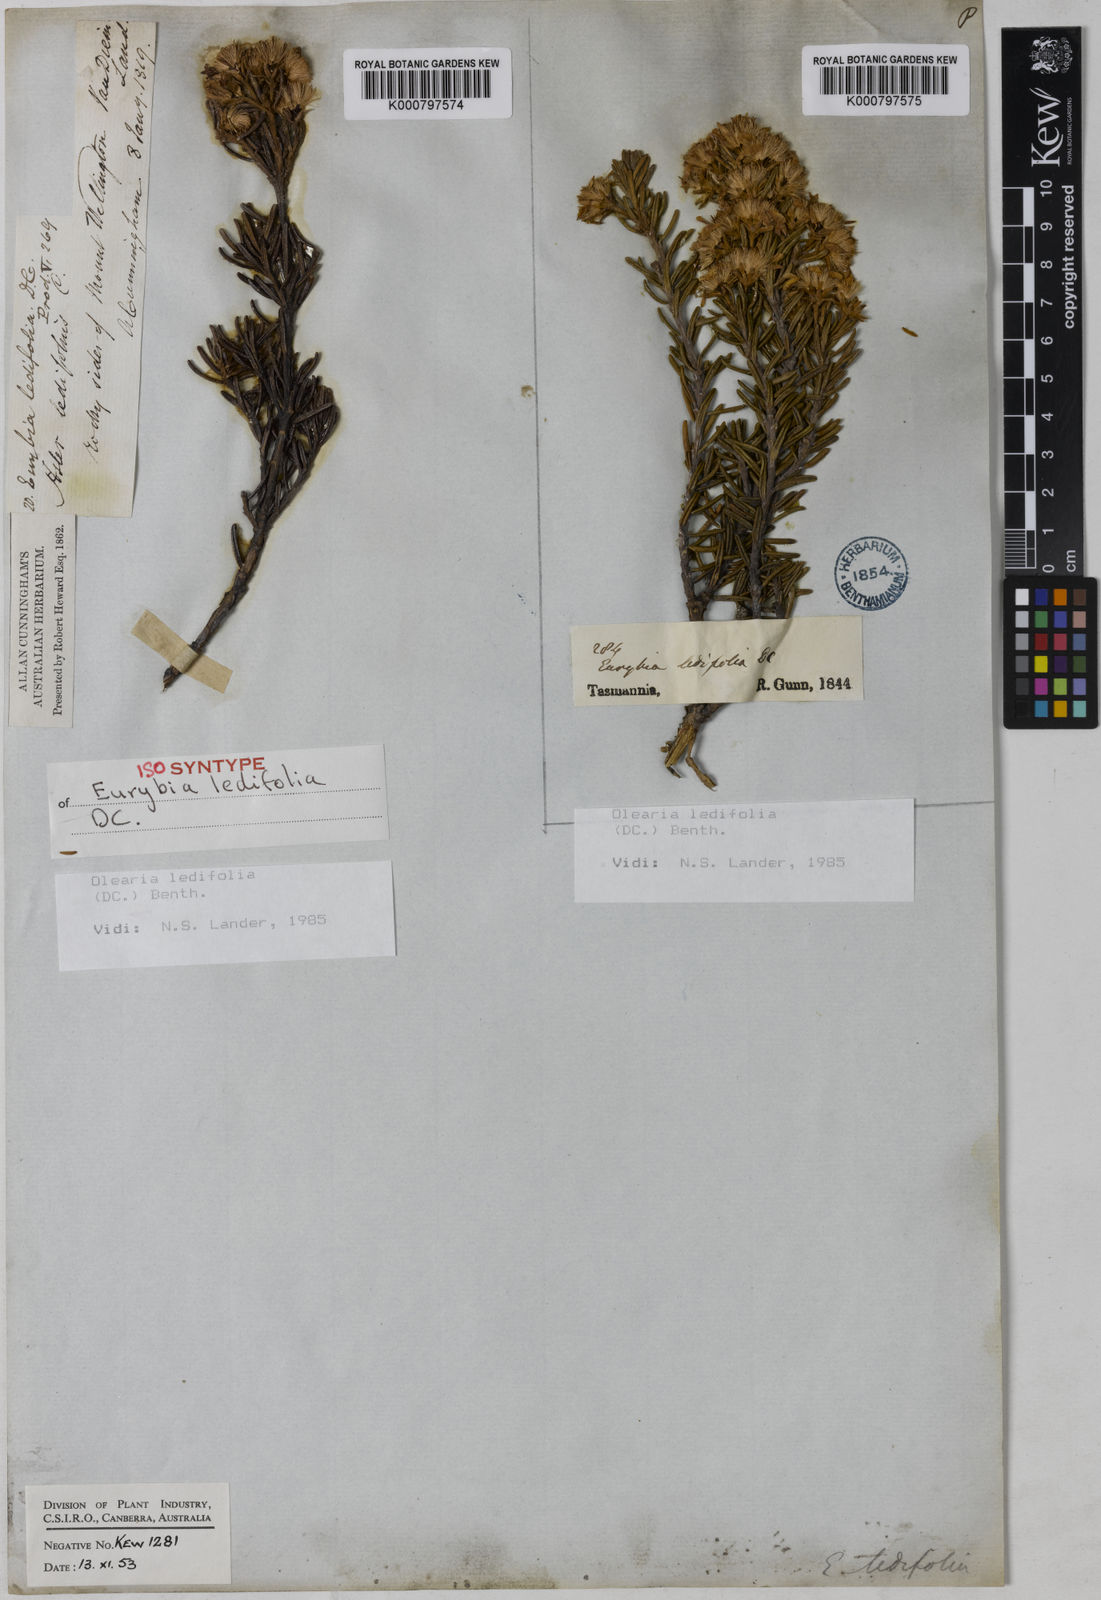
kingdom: Plantae
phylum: Tracheophyta
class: Magnoliopsida
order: Asterales
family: Asteraceae
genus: Olearia
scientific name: Olearia ledifolia
